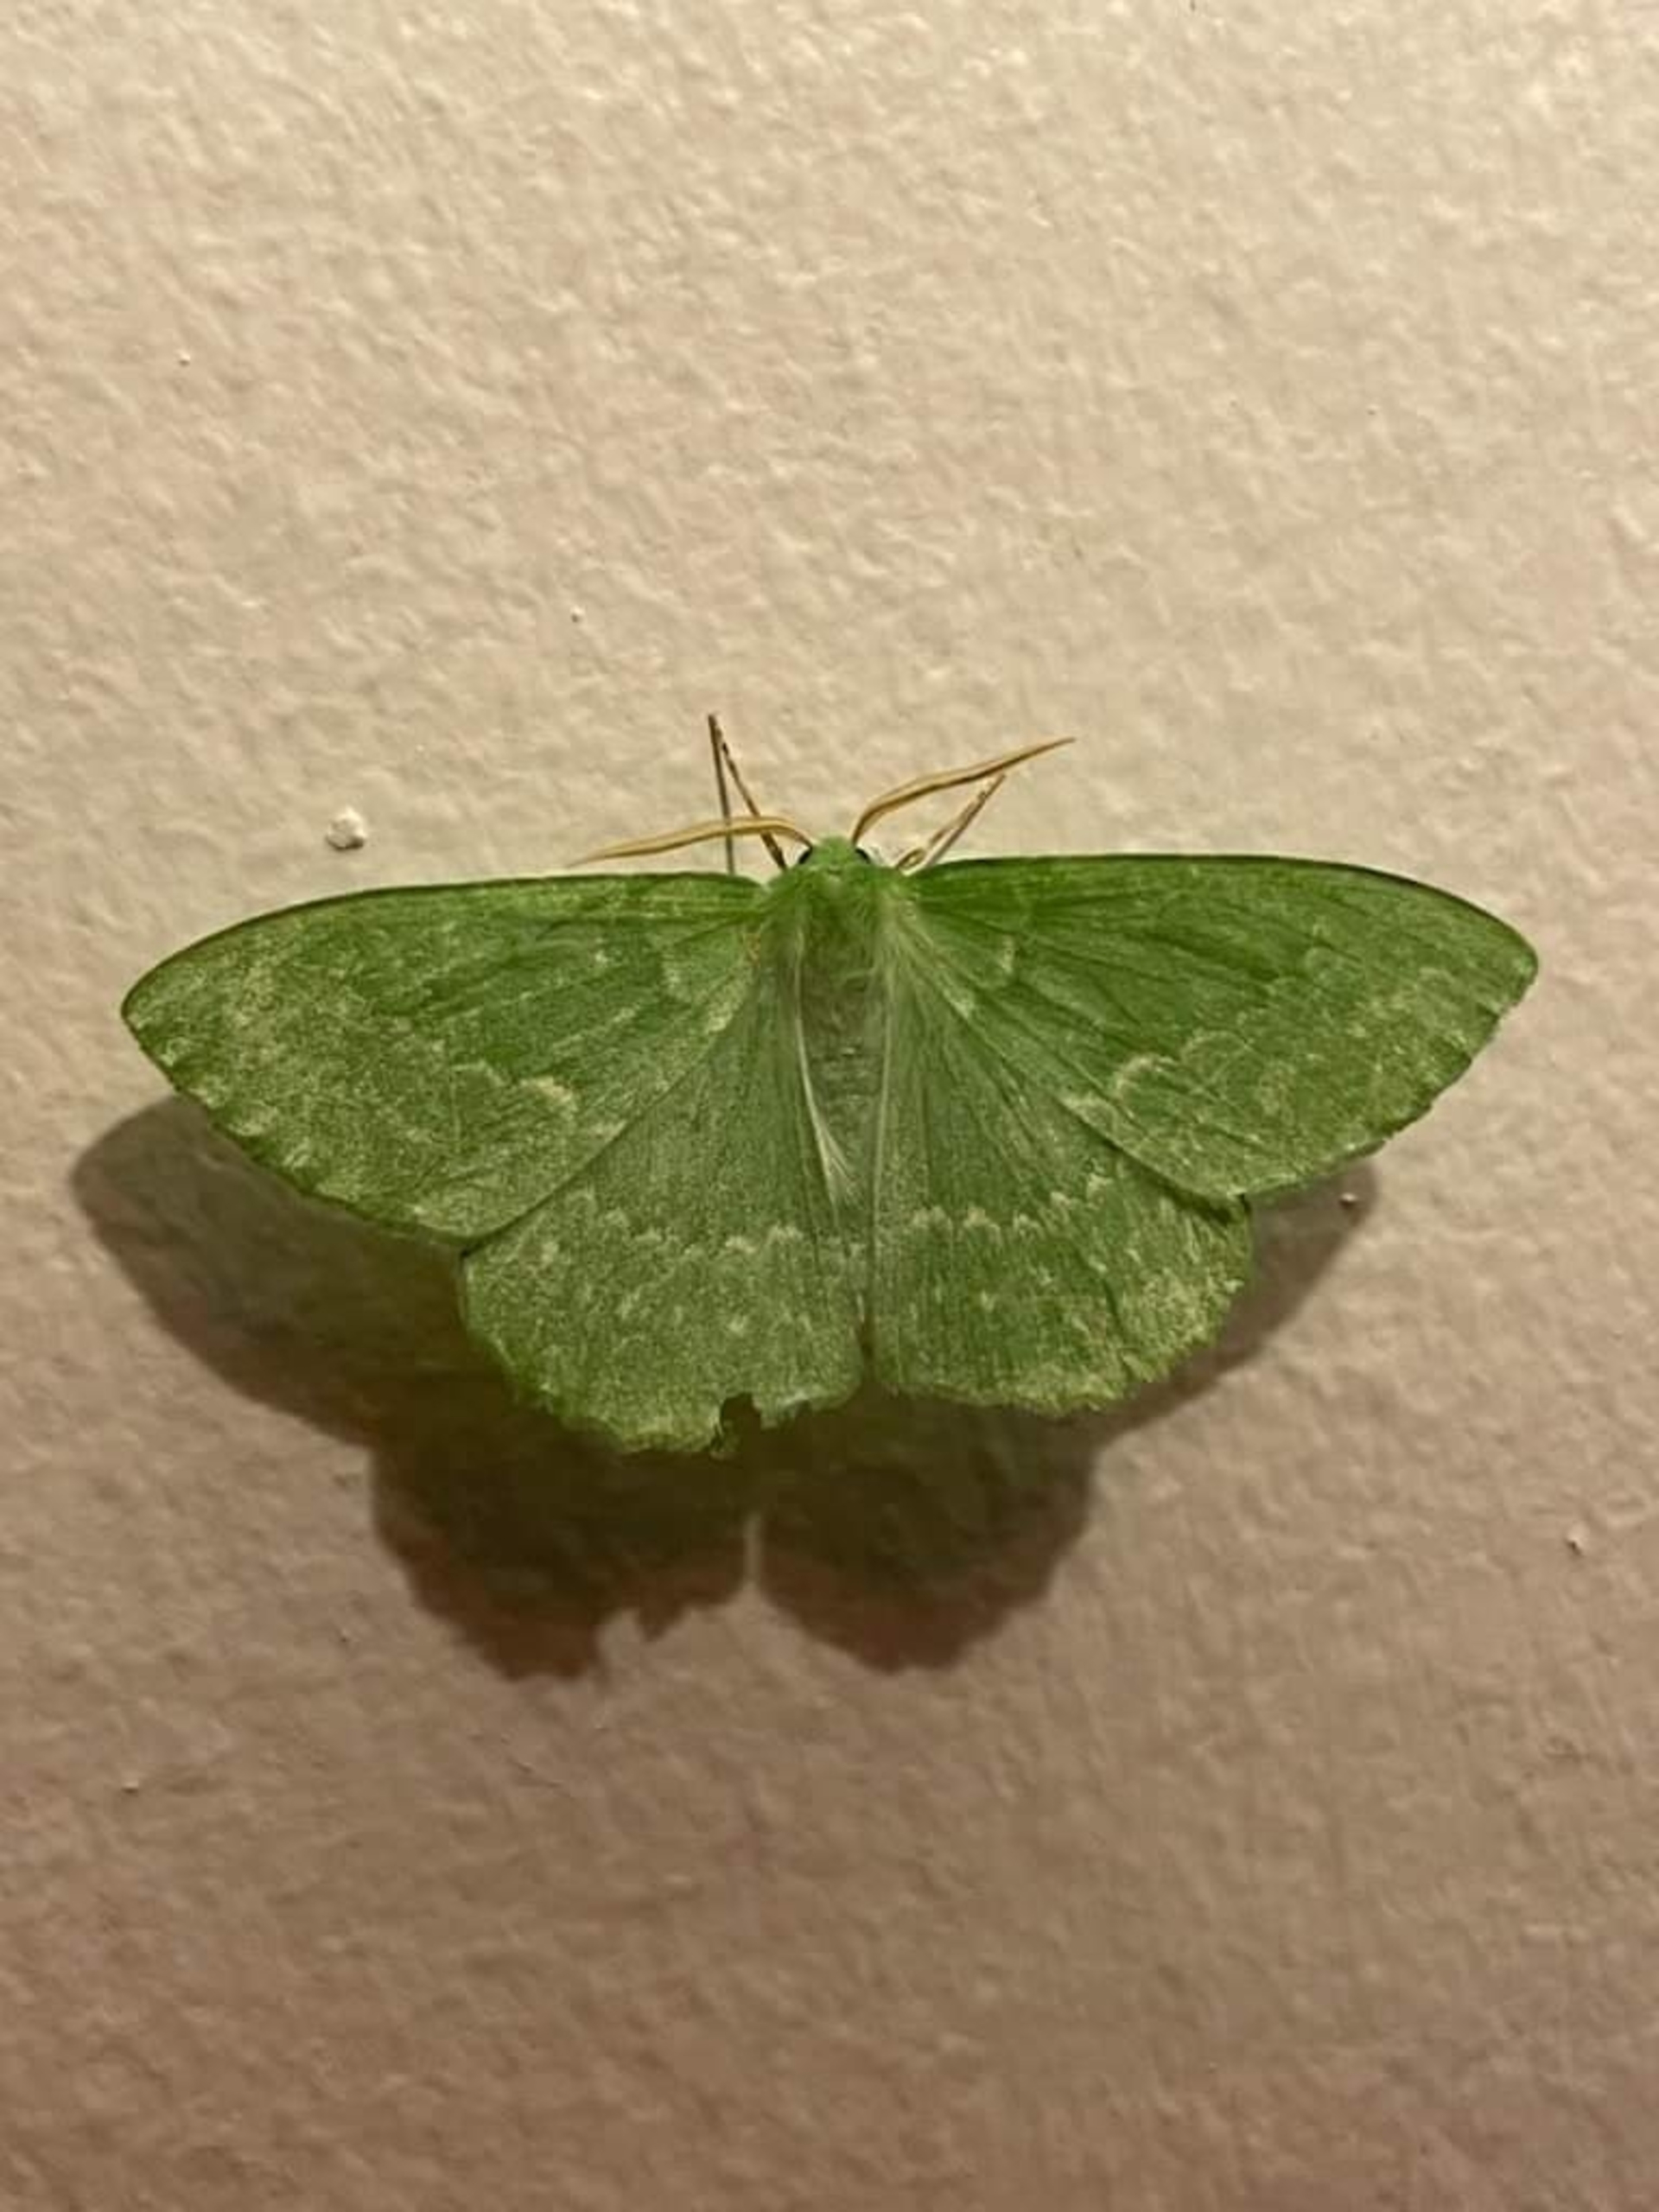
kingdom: Animalia
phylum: Arthropoda
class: Insecta
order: Lepidoptera
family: Geometridae
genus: Geometra
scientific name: Geometra papilionaria
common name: Grøn birkemåler
